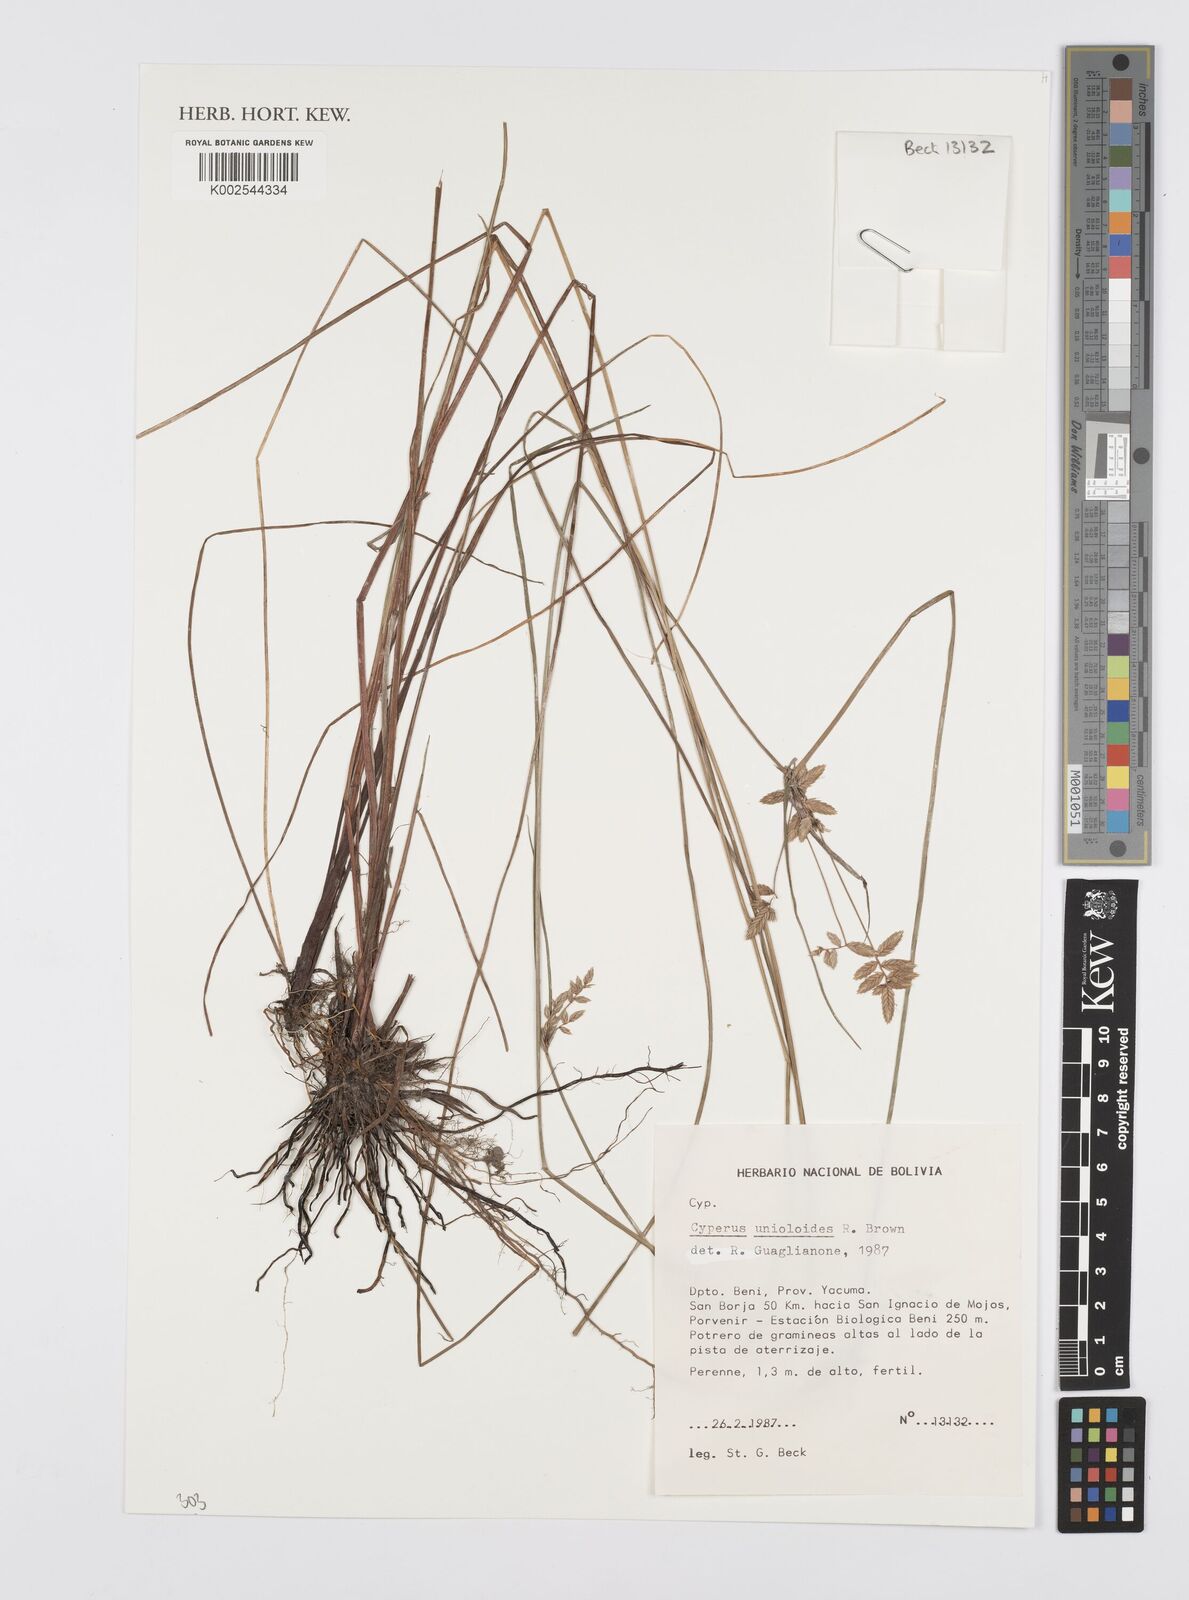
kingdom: Plantae
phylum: Tracheophyta
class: Liliopsida
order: Poales
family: Cyperaceae
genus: Cyperus
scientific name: Cyperus unioloides
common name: Uniola flatsedge
